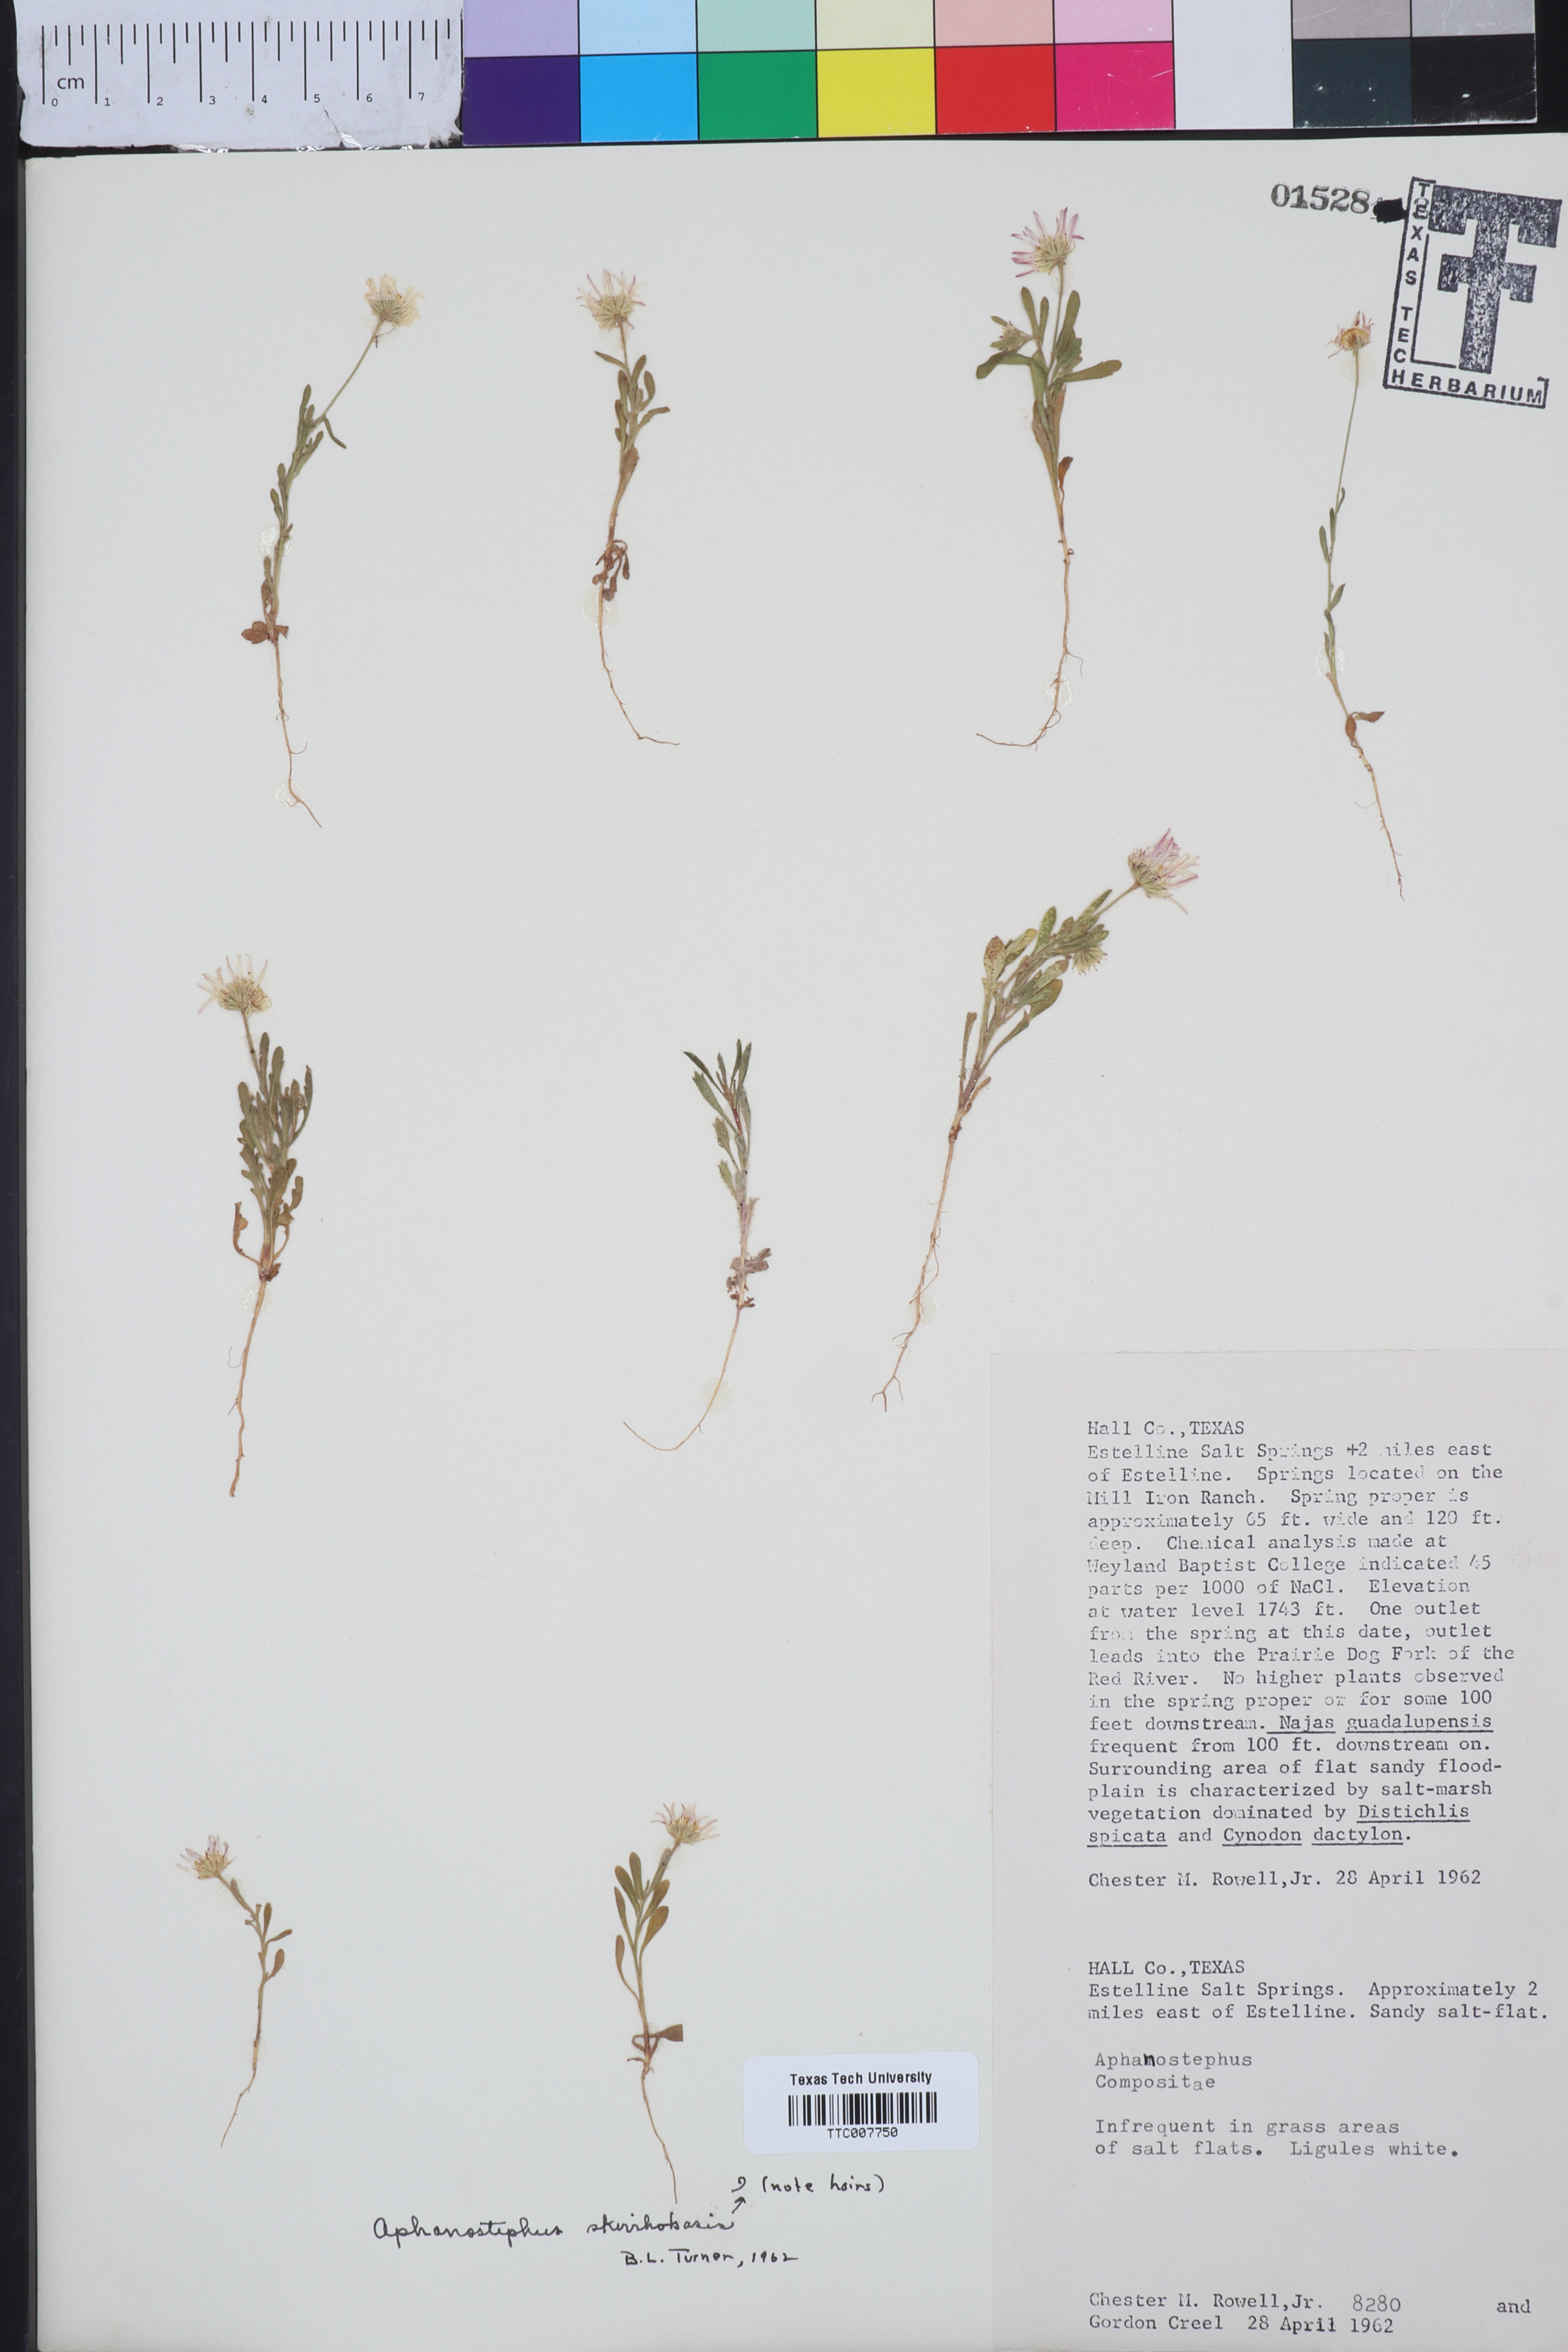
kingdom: Plantae
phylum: Tracheophyta
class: Magnoliopsida
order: Asterales
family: Asteraceae
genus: Aphanostephus
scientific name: Aphanostephus skirrhobasis
